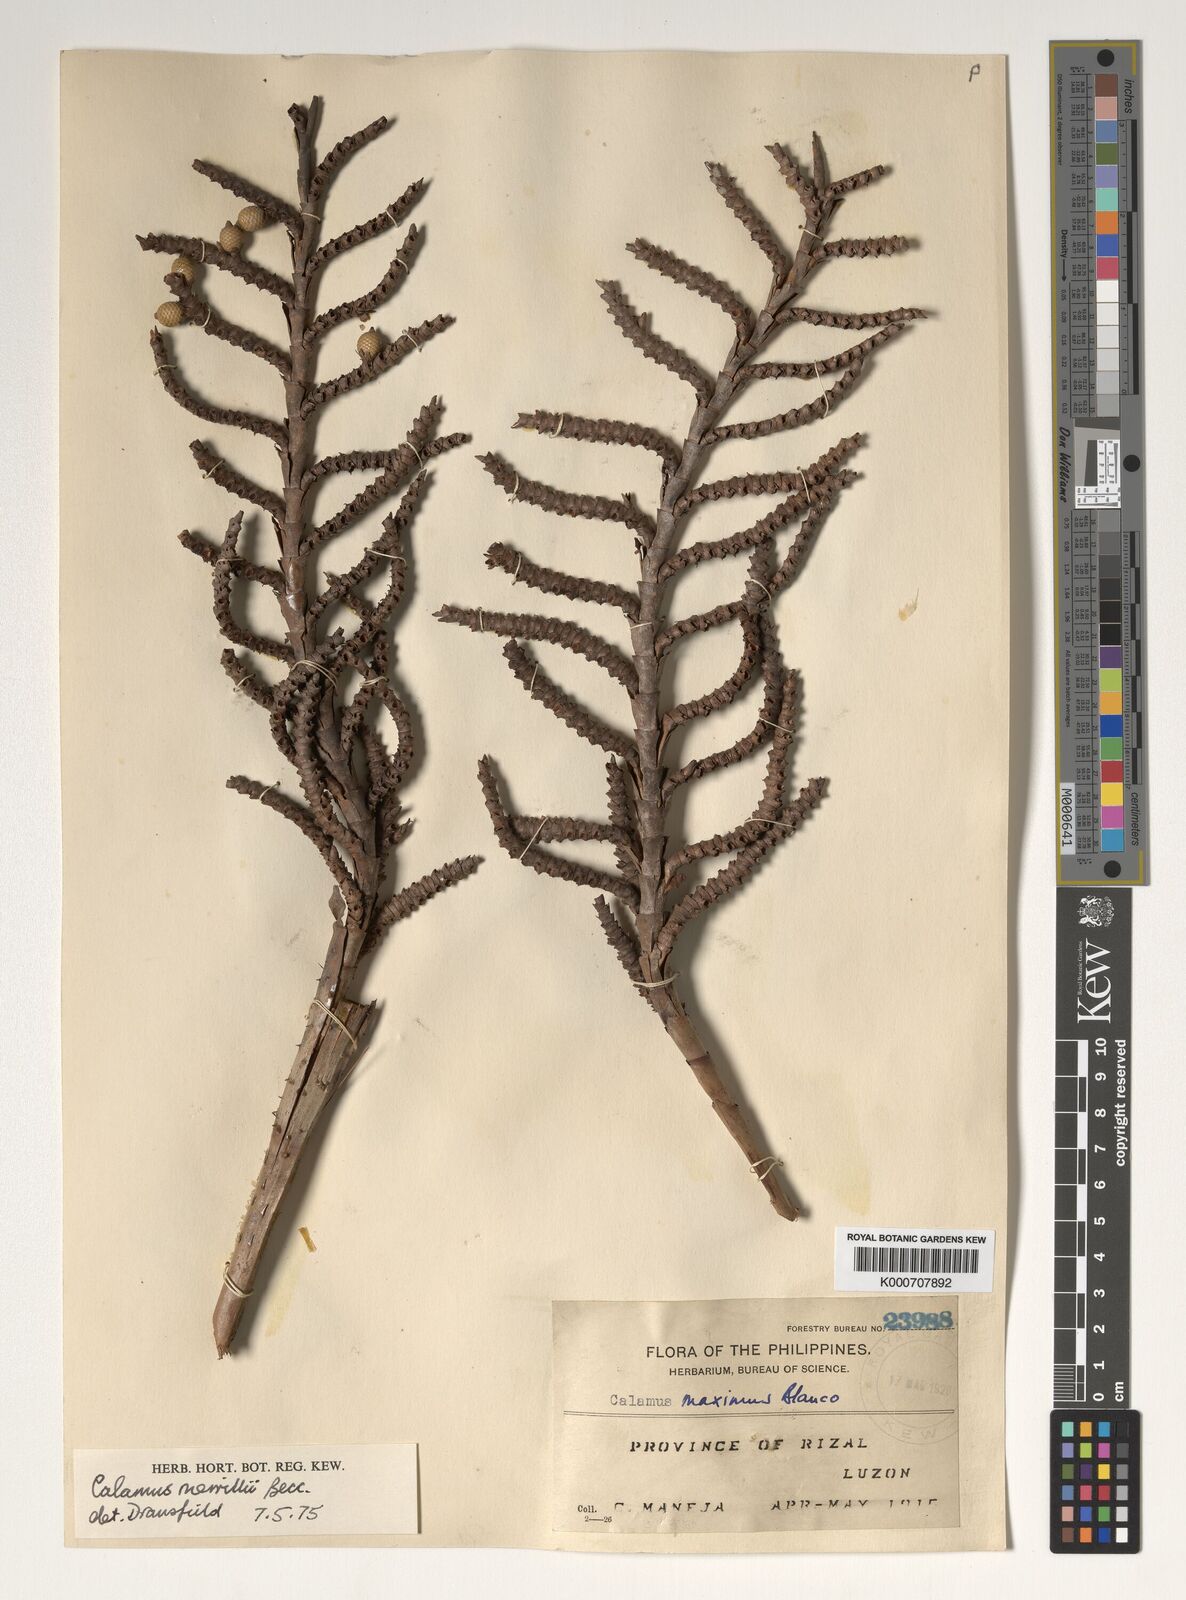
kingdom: Plantae
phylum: Tracheophyta
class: Liliopsida
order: Arecales
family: Arecaceae
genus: Calamus
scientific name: Calamus zollingeri
